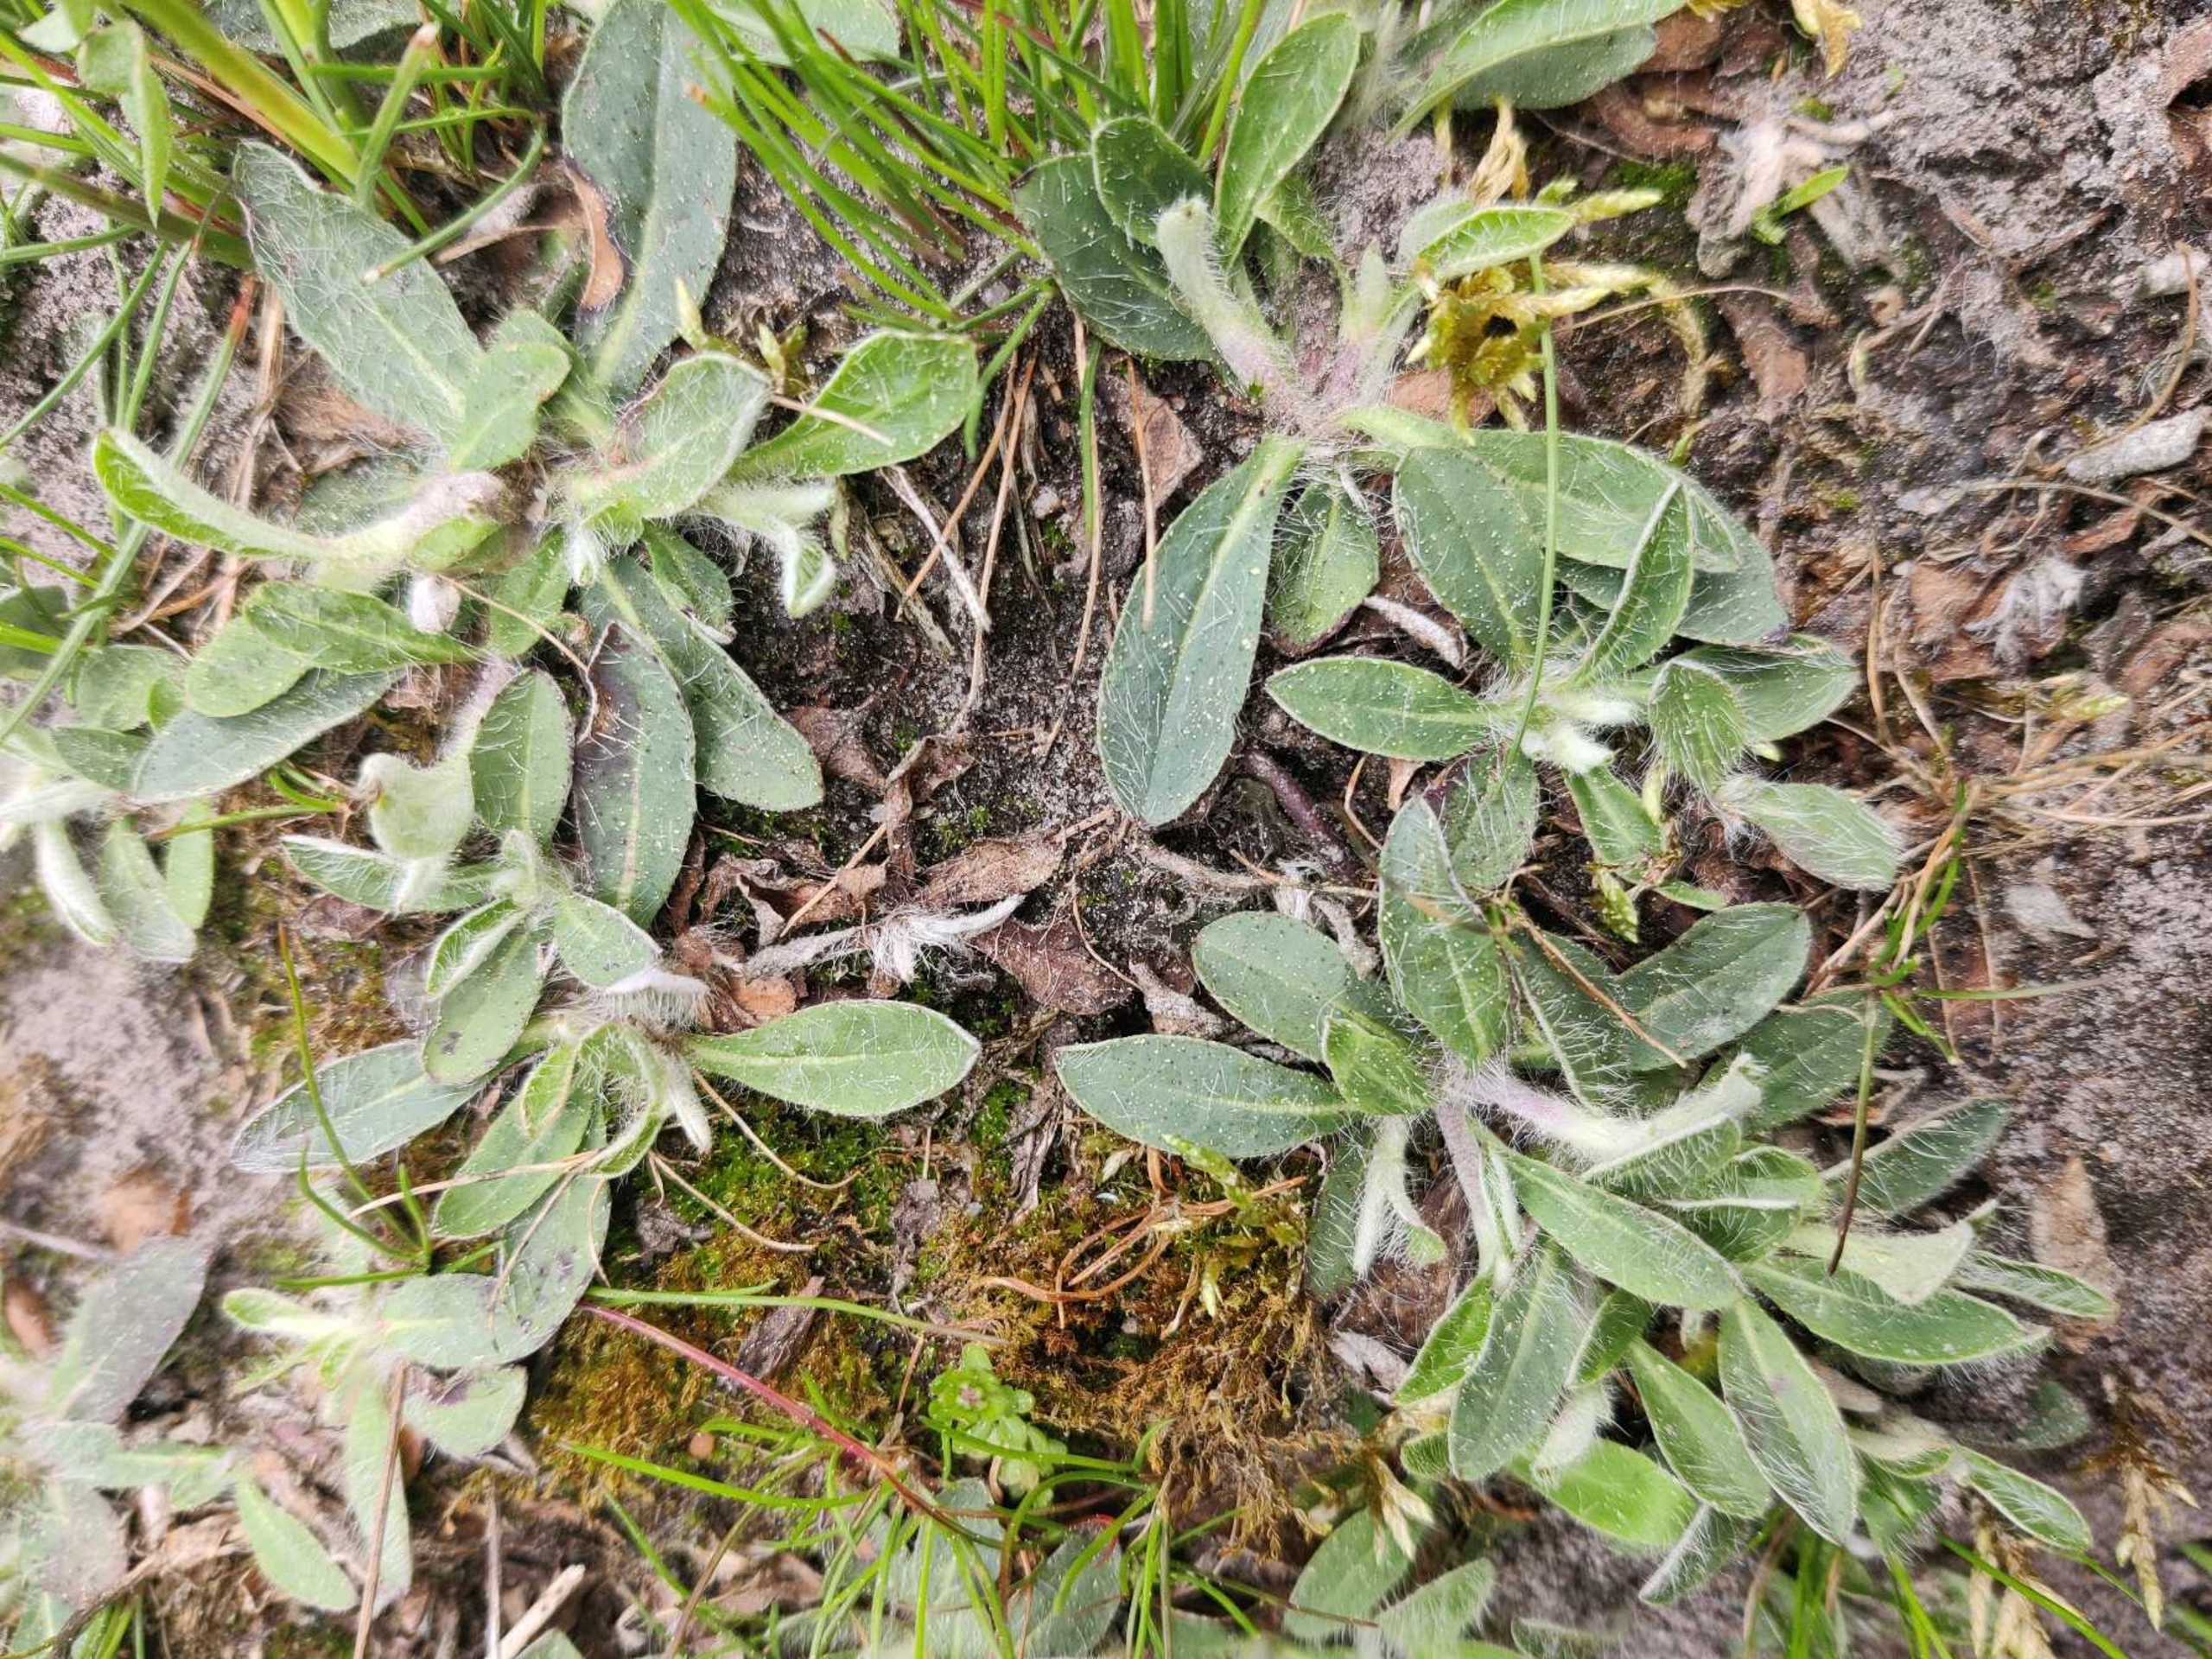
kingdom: Plantae
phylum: Tracheophyta
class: Magnoliopsida
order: Asterales
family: Asteraceae
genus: Pilosella
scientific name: Pilosella officinarum
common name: Håret høgeurt
